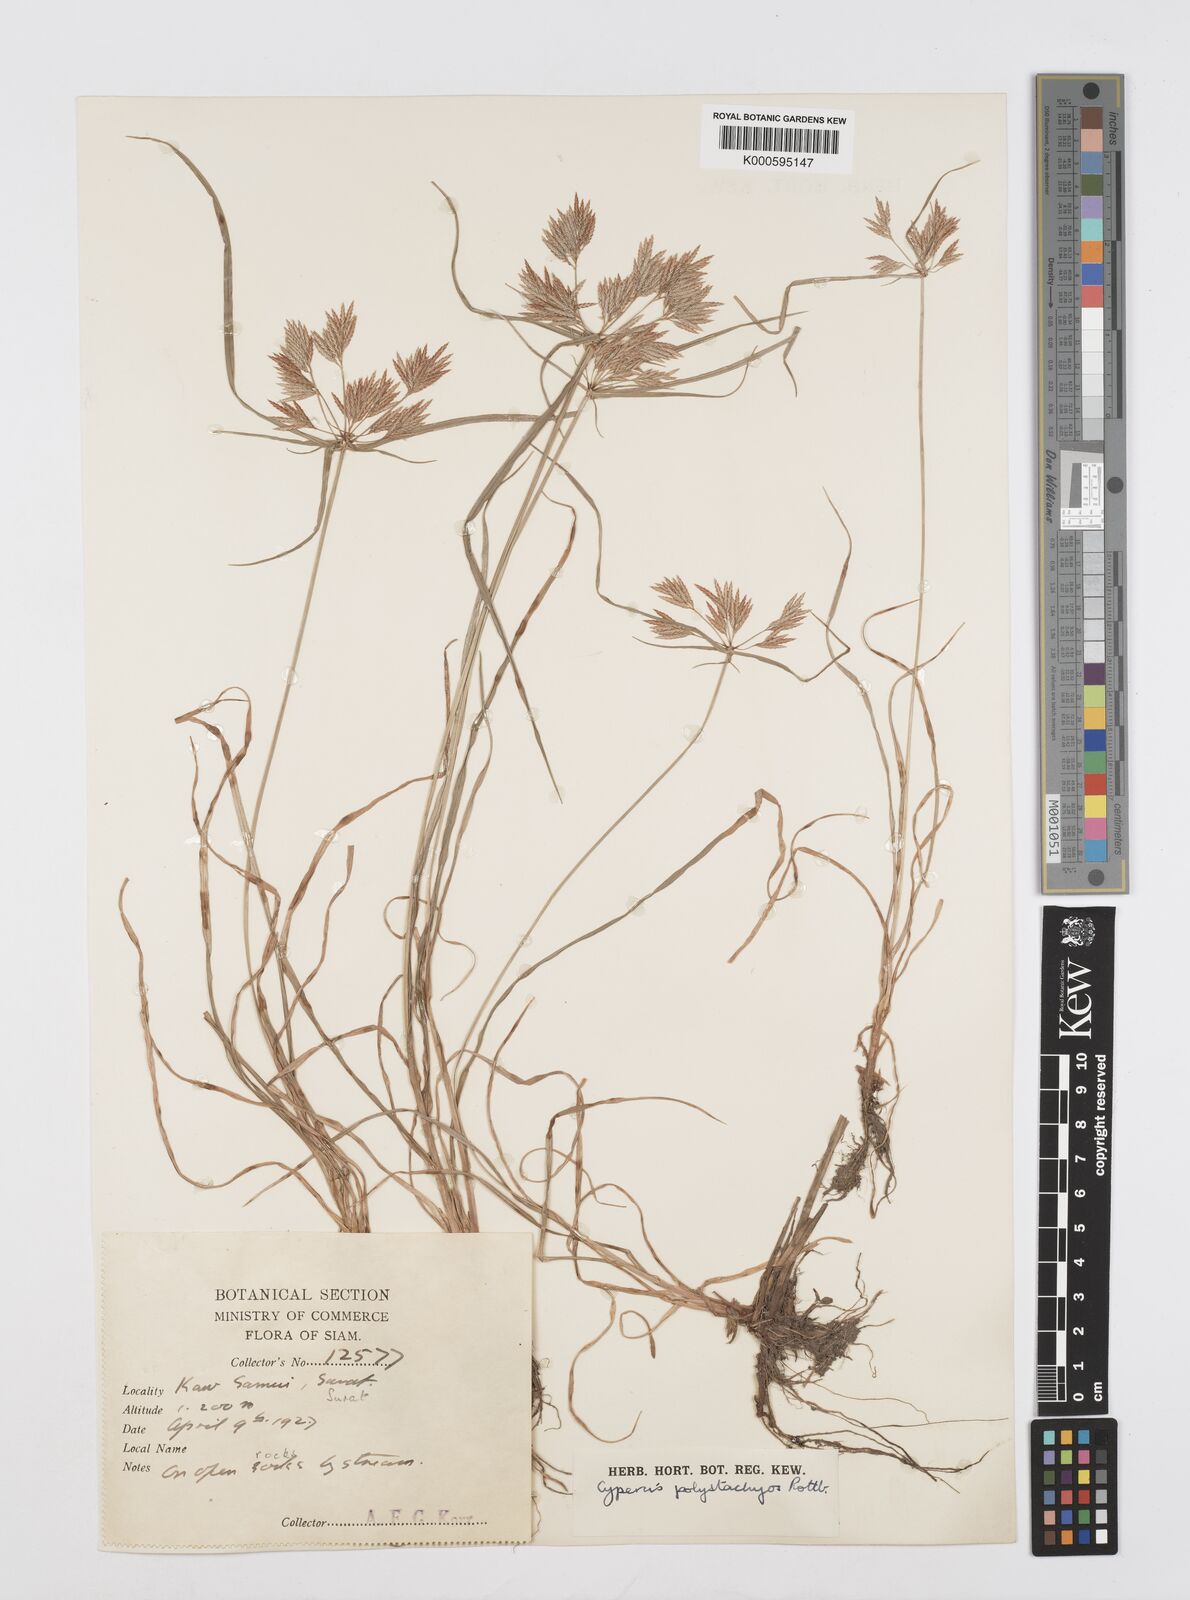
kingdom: Plantae
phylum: Tracheophyta
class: Liliopsida
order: Poales
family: Cyperaceae
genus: Cyperus
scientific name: Cyperus polystachyos
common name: Bunchy flat sedge
